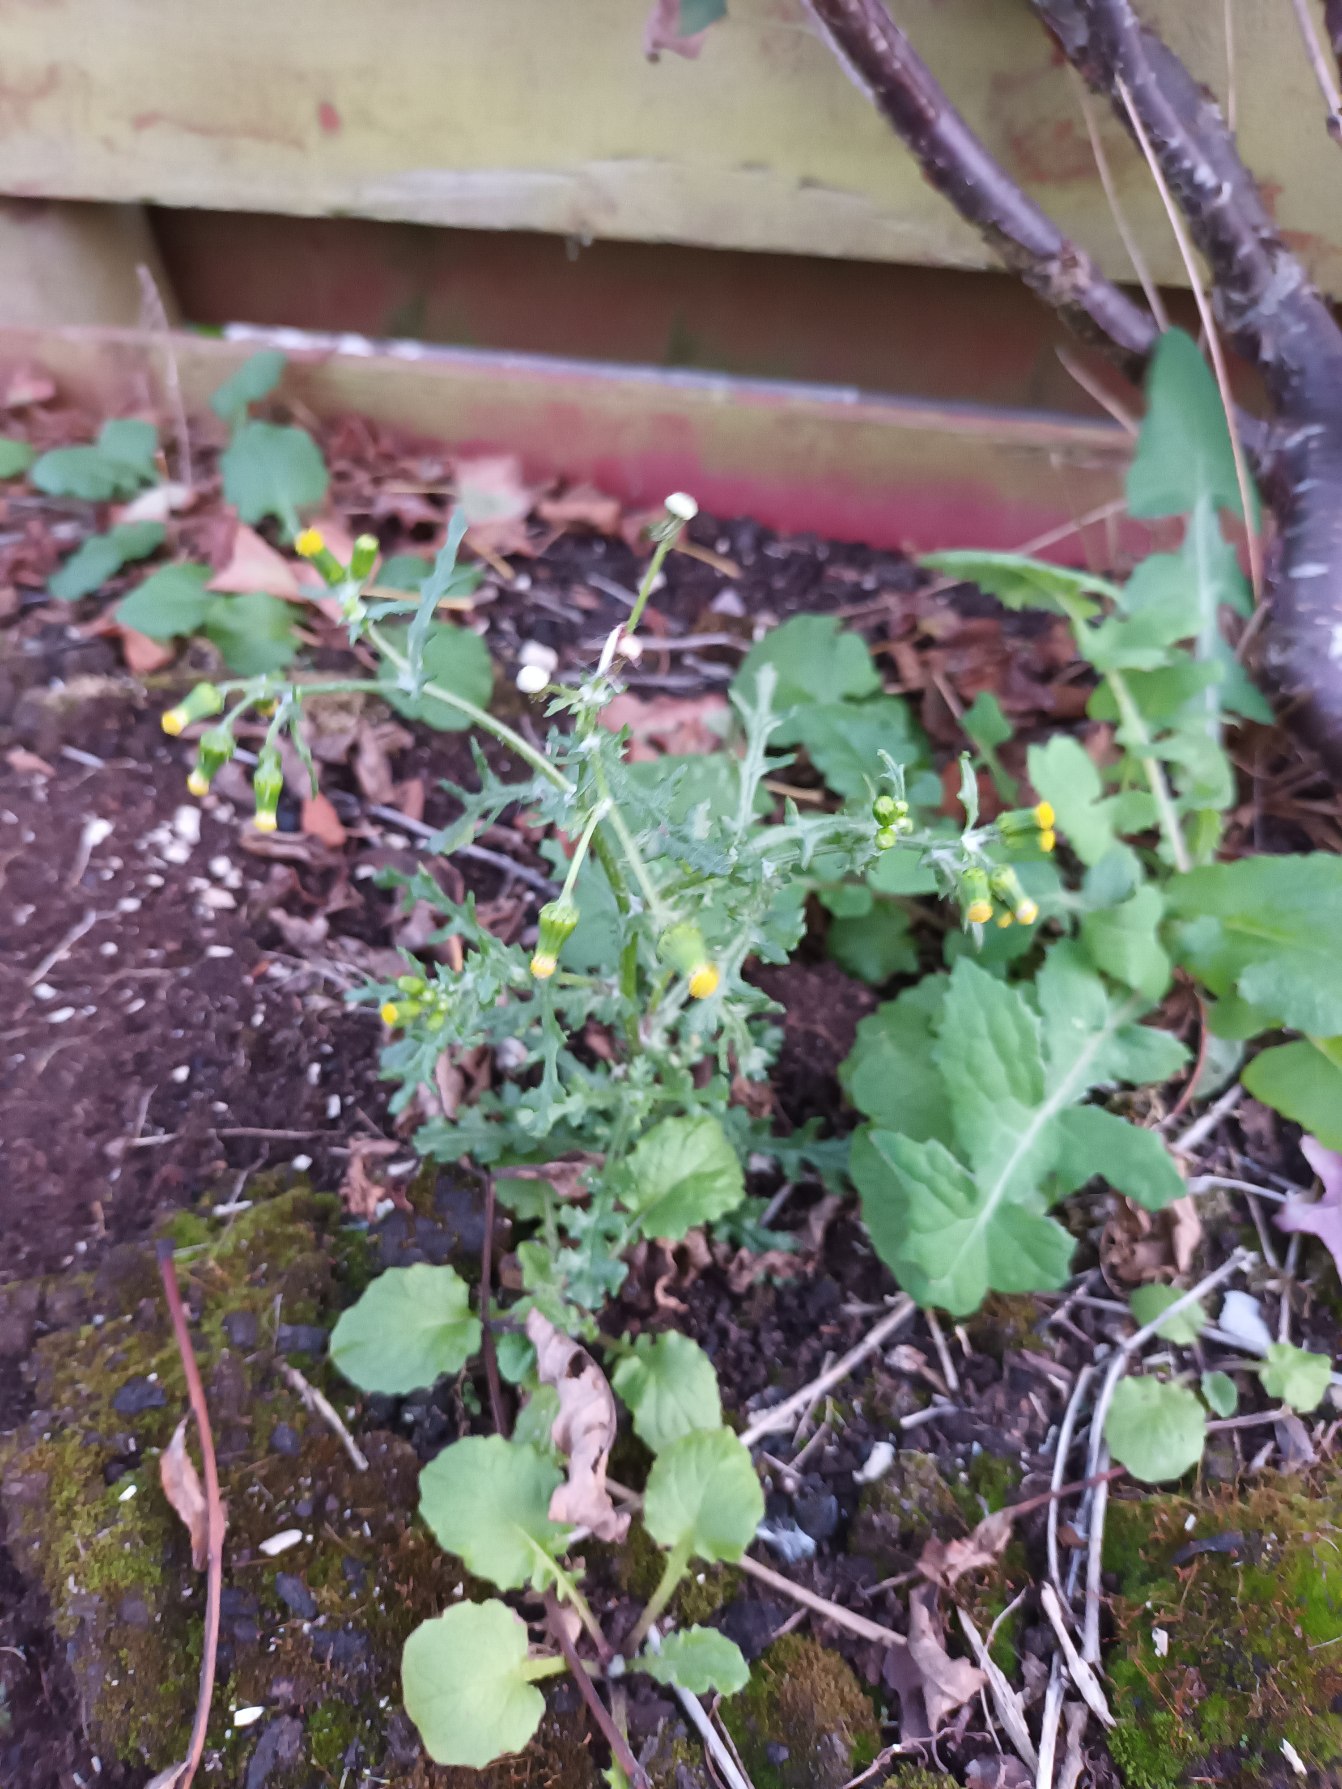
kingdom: Plantae
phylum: Tracheophyta
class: Magnoliopsida
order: Asterales
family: Asteraceae
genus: Senecio
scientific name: Senecio vulgaris
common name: Almindelig brandbæger
